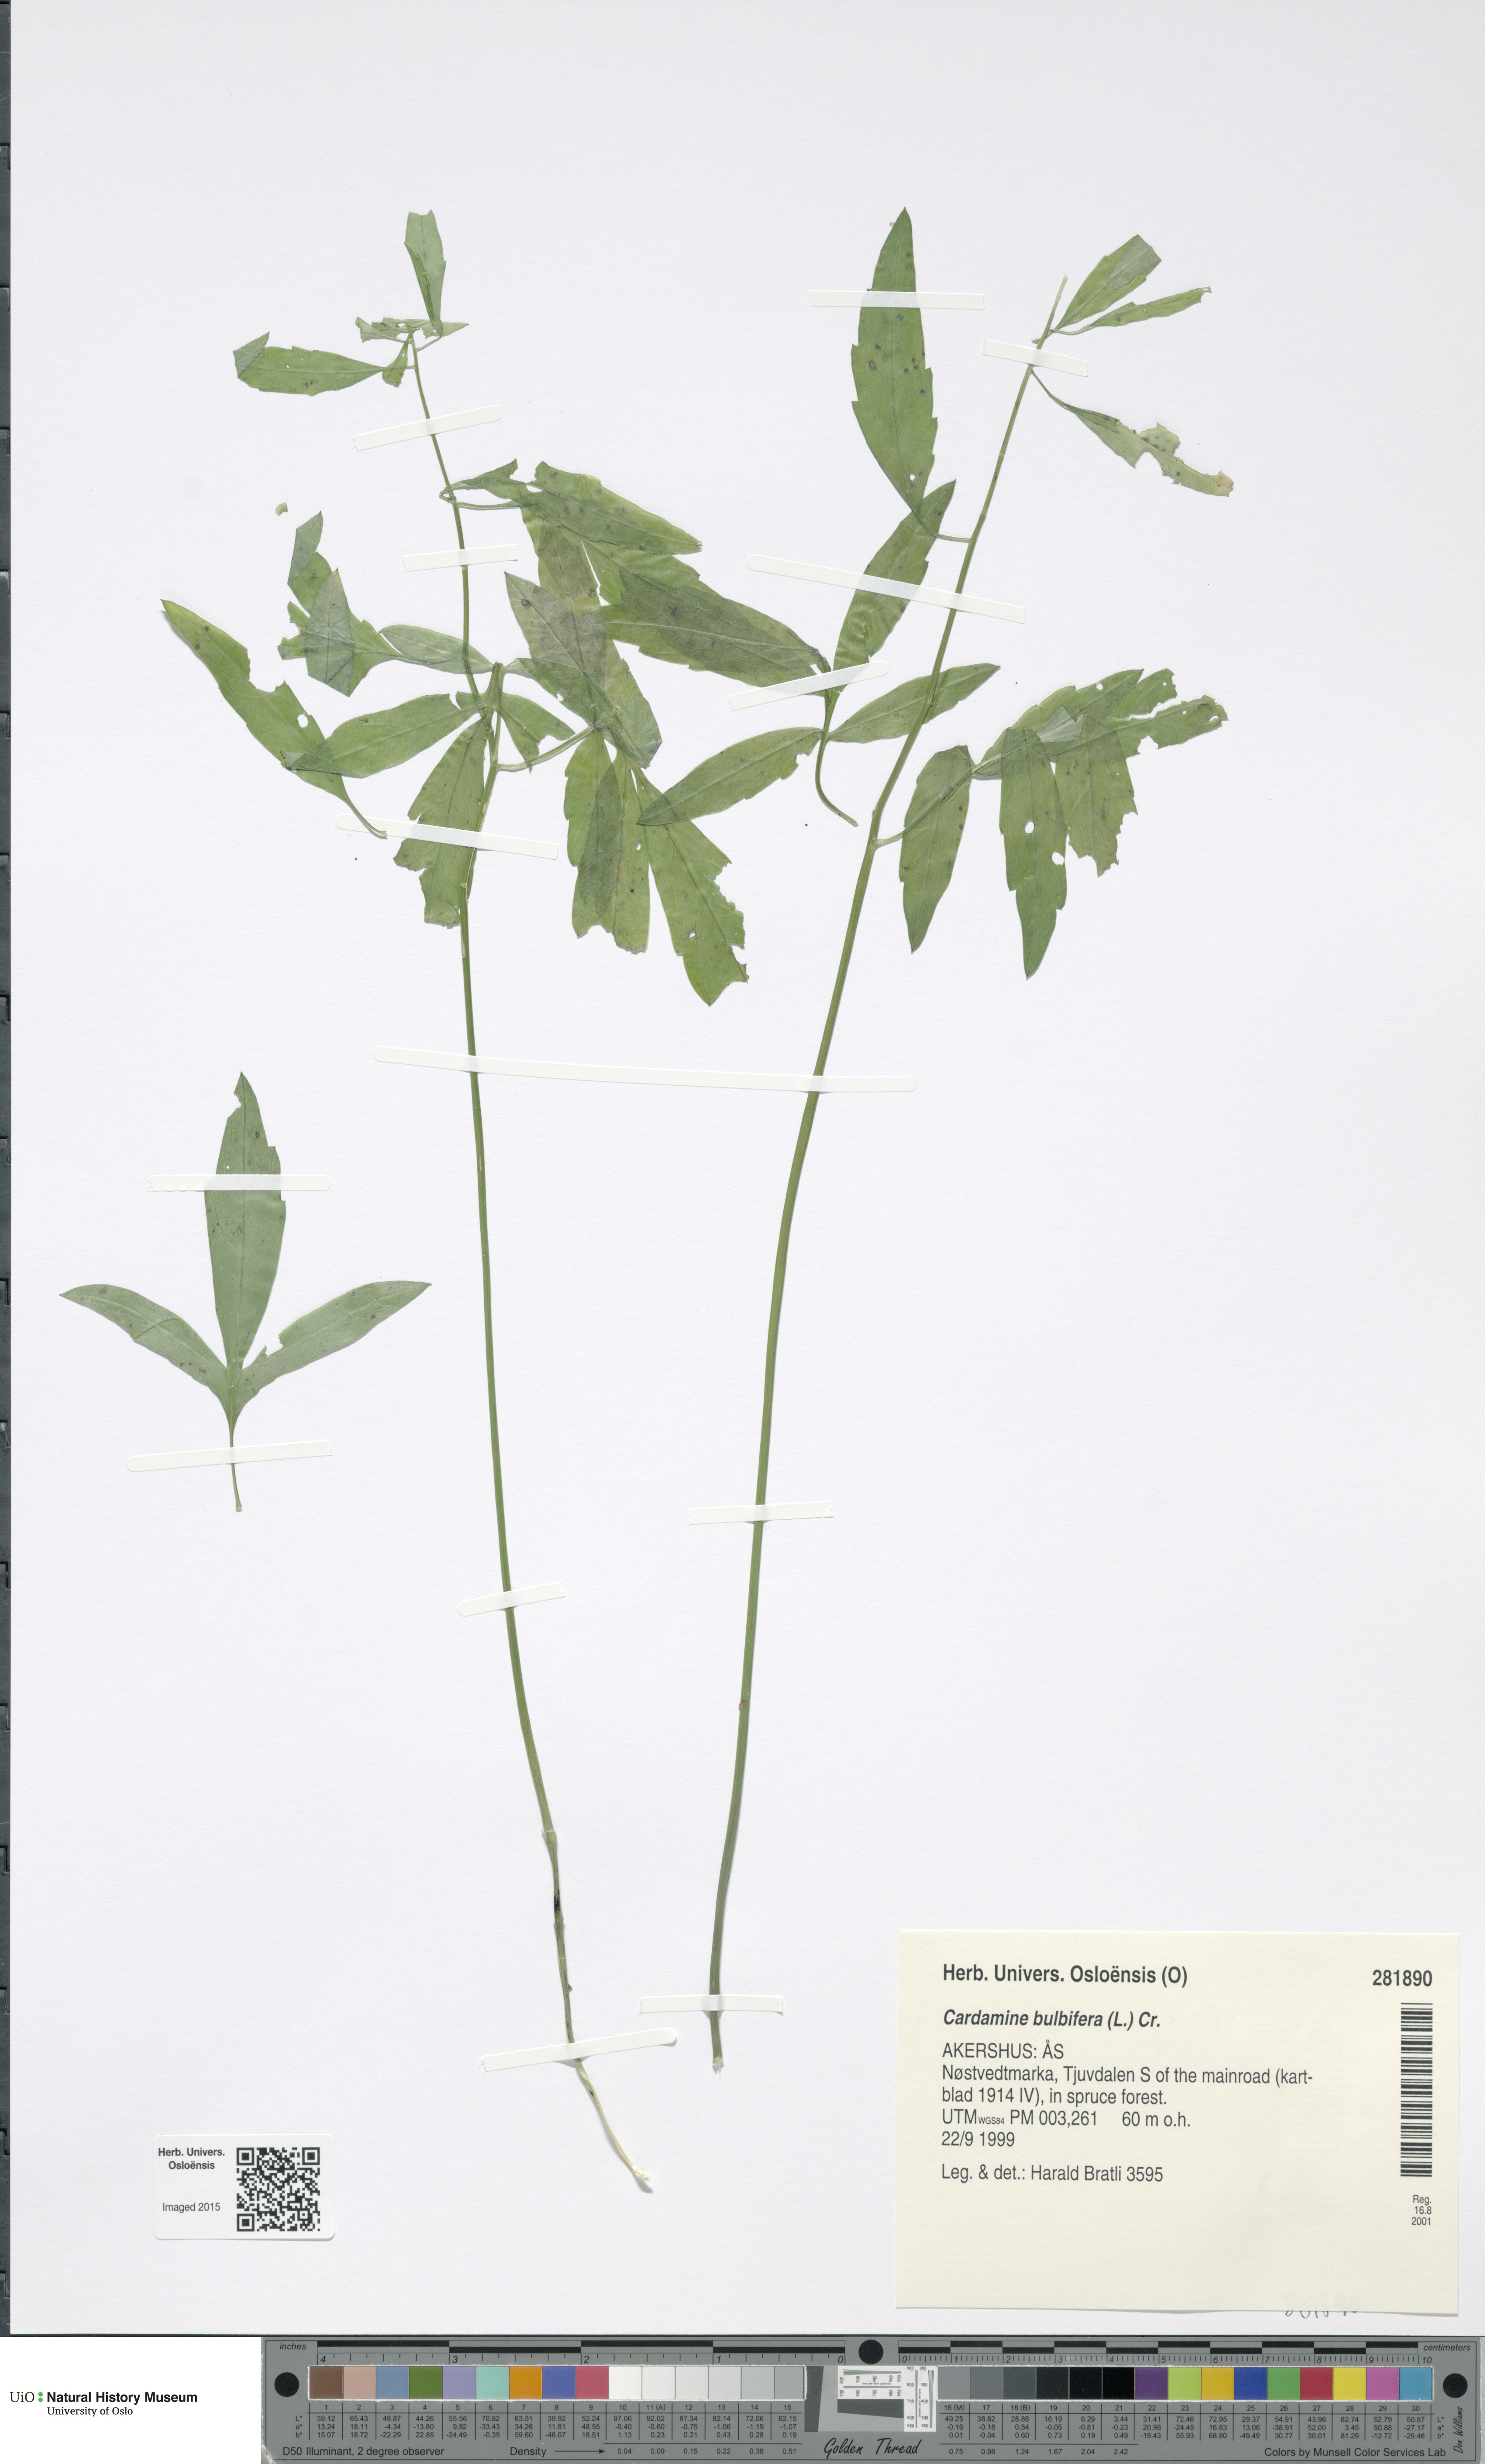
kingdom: Plantae
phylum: Tracheophyta
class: Magnoliopsida
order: Brassicales
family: Brassicaceae
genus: Cardamine
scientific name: Cardamine bulbifera
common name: Coralroot bittercress
